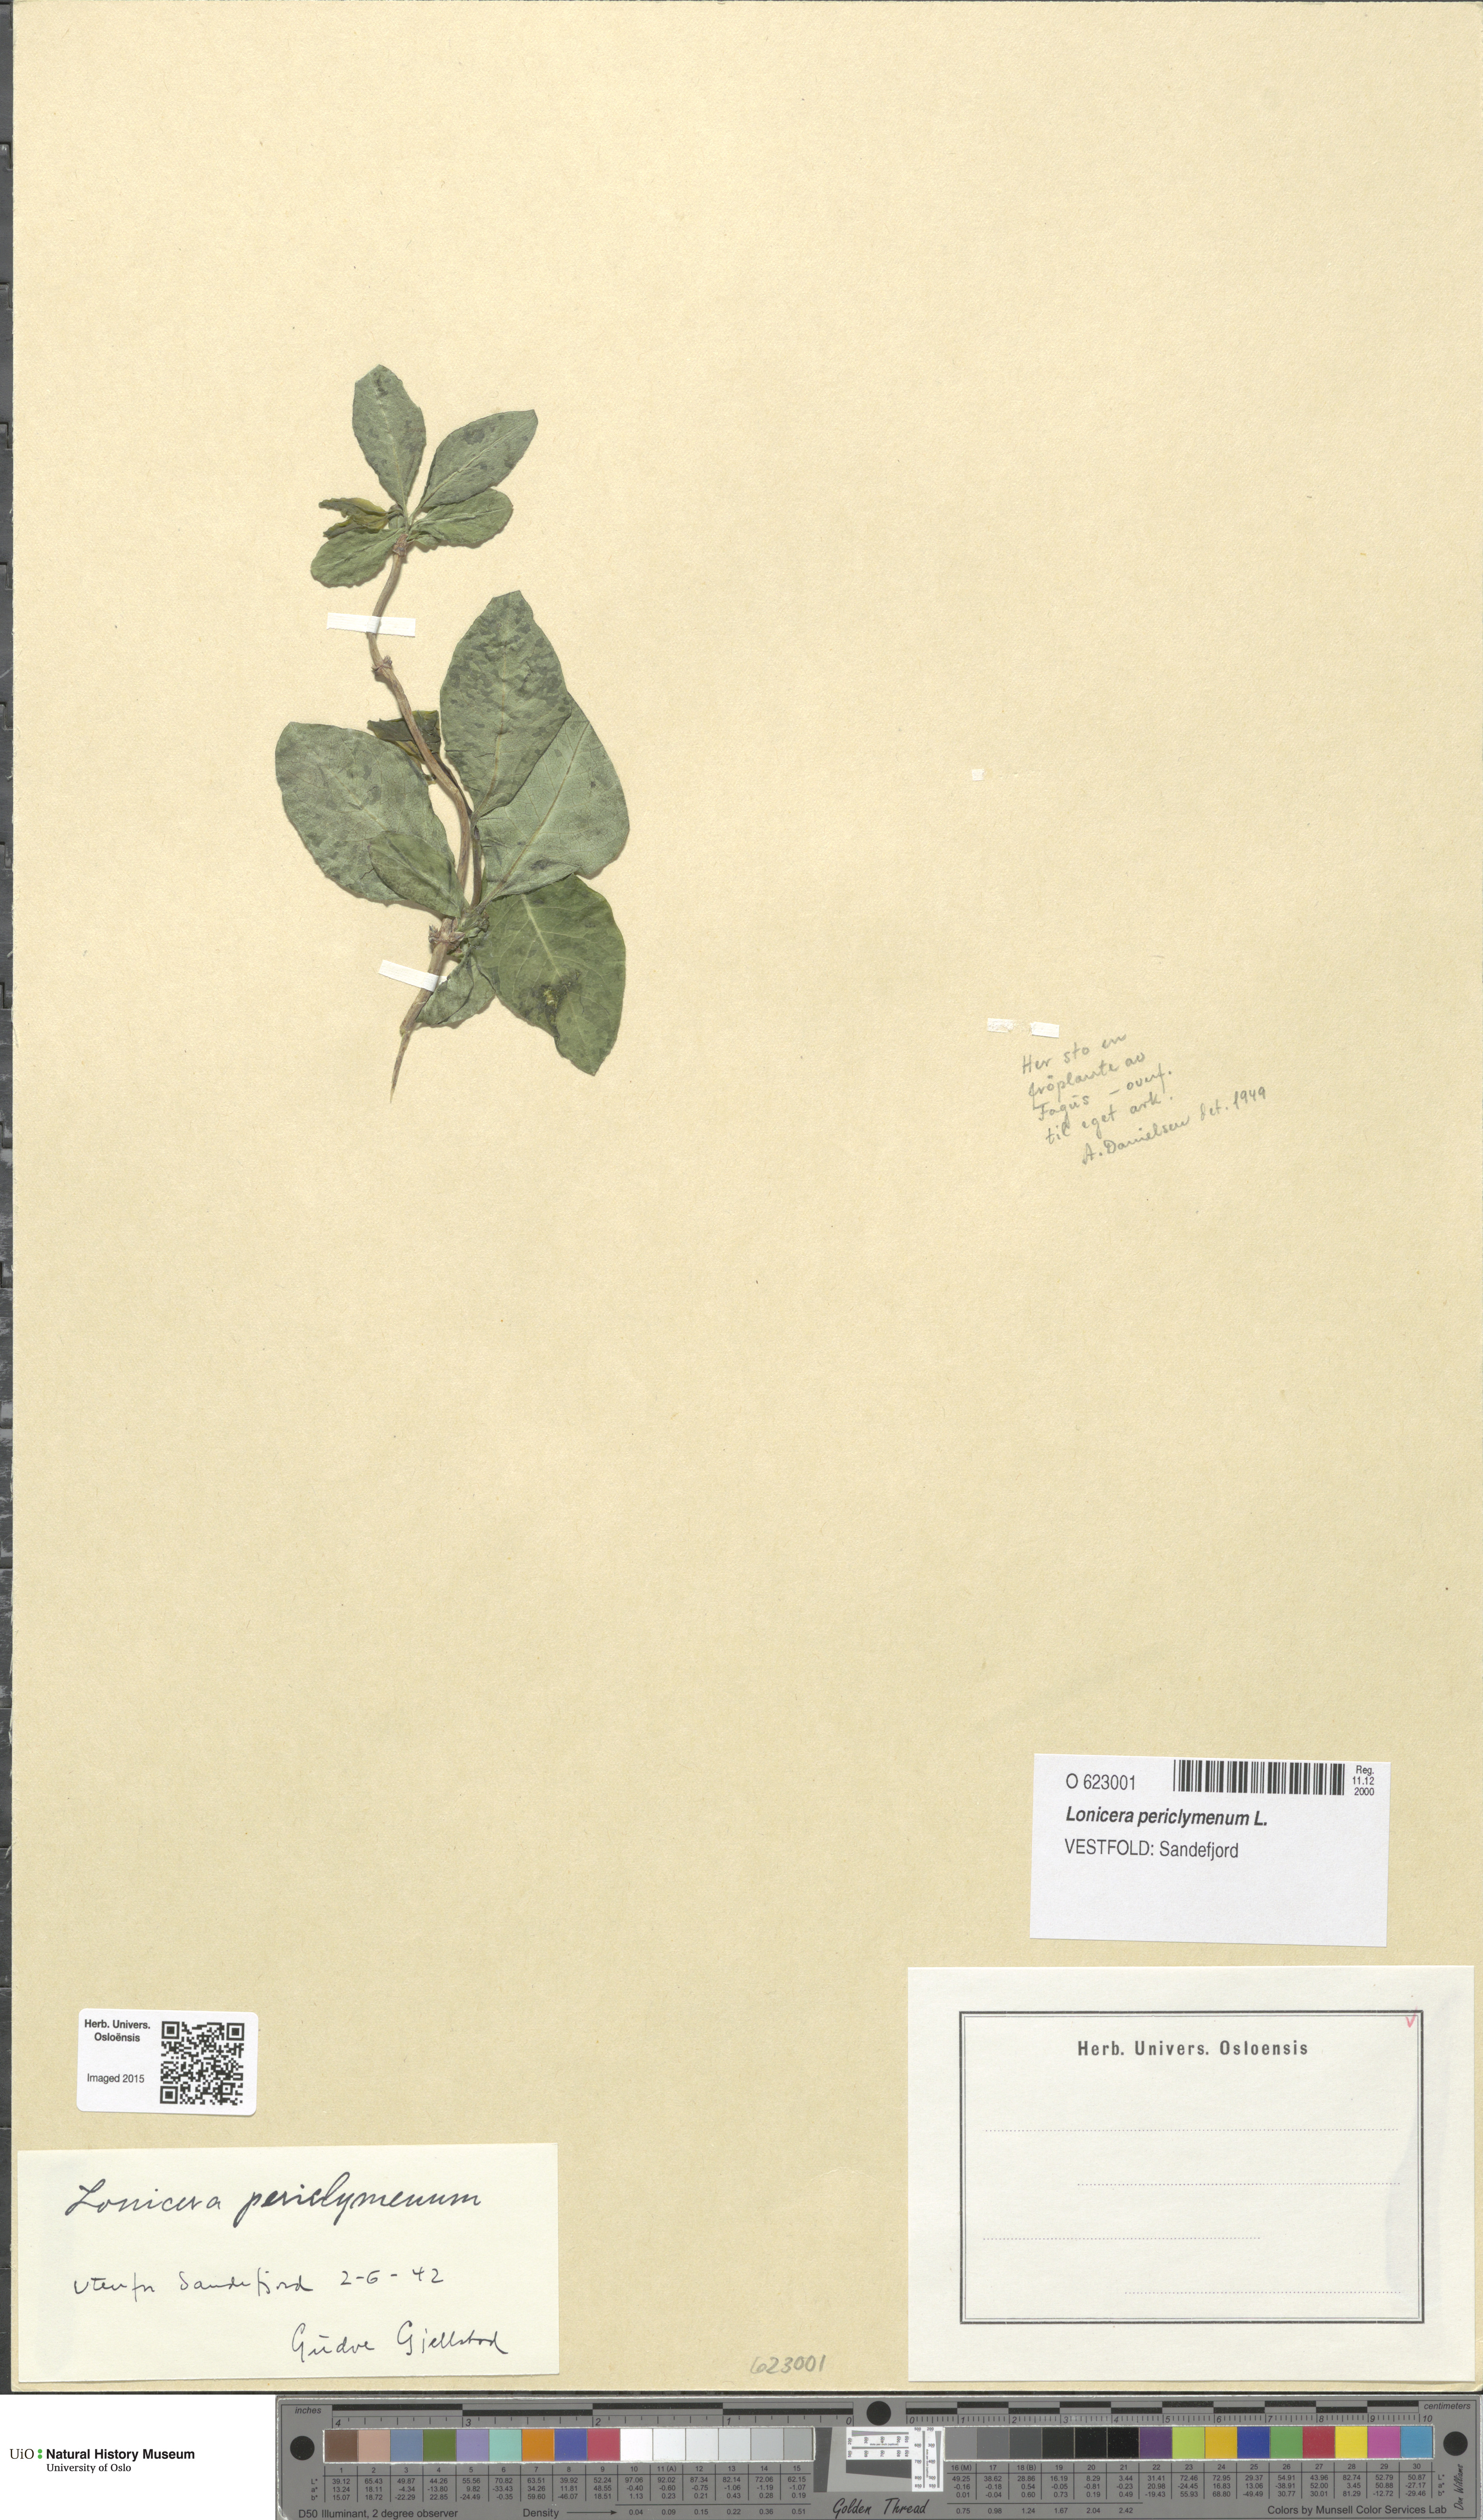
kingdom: Plantae
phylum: Tracheophyta
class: Magnoliopsida
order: Dipsacales
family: Caprifoliaceae
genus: Lonicera
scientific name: Lonicera periclymenum
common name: European honeysuckle
